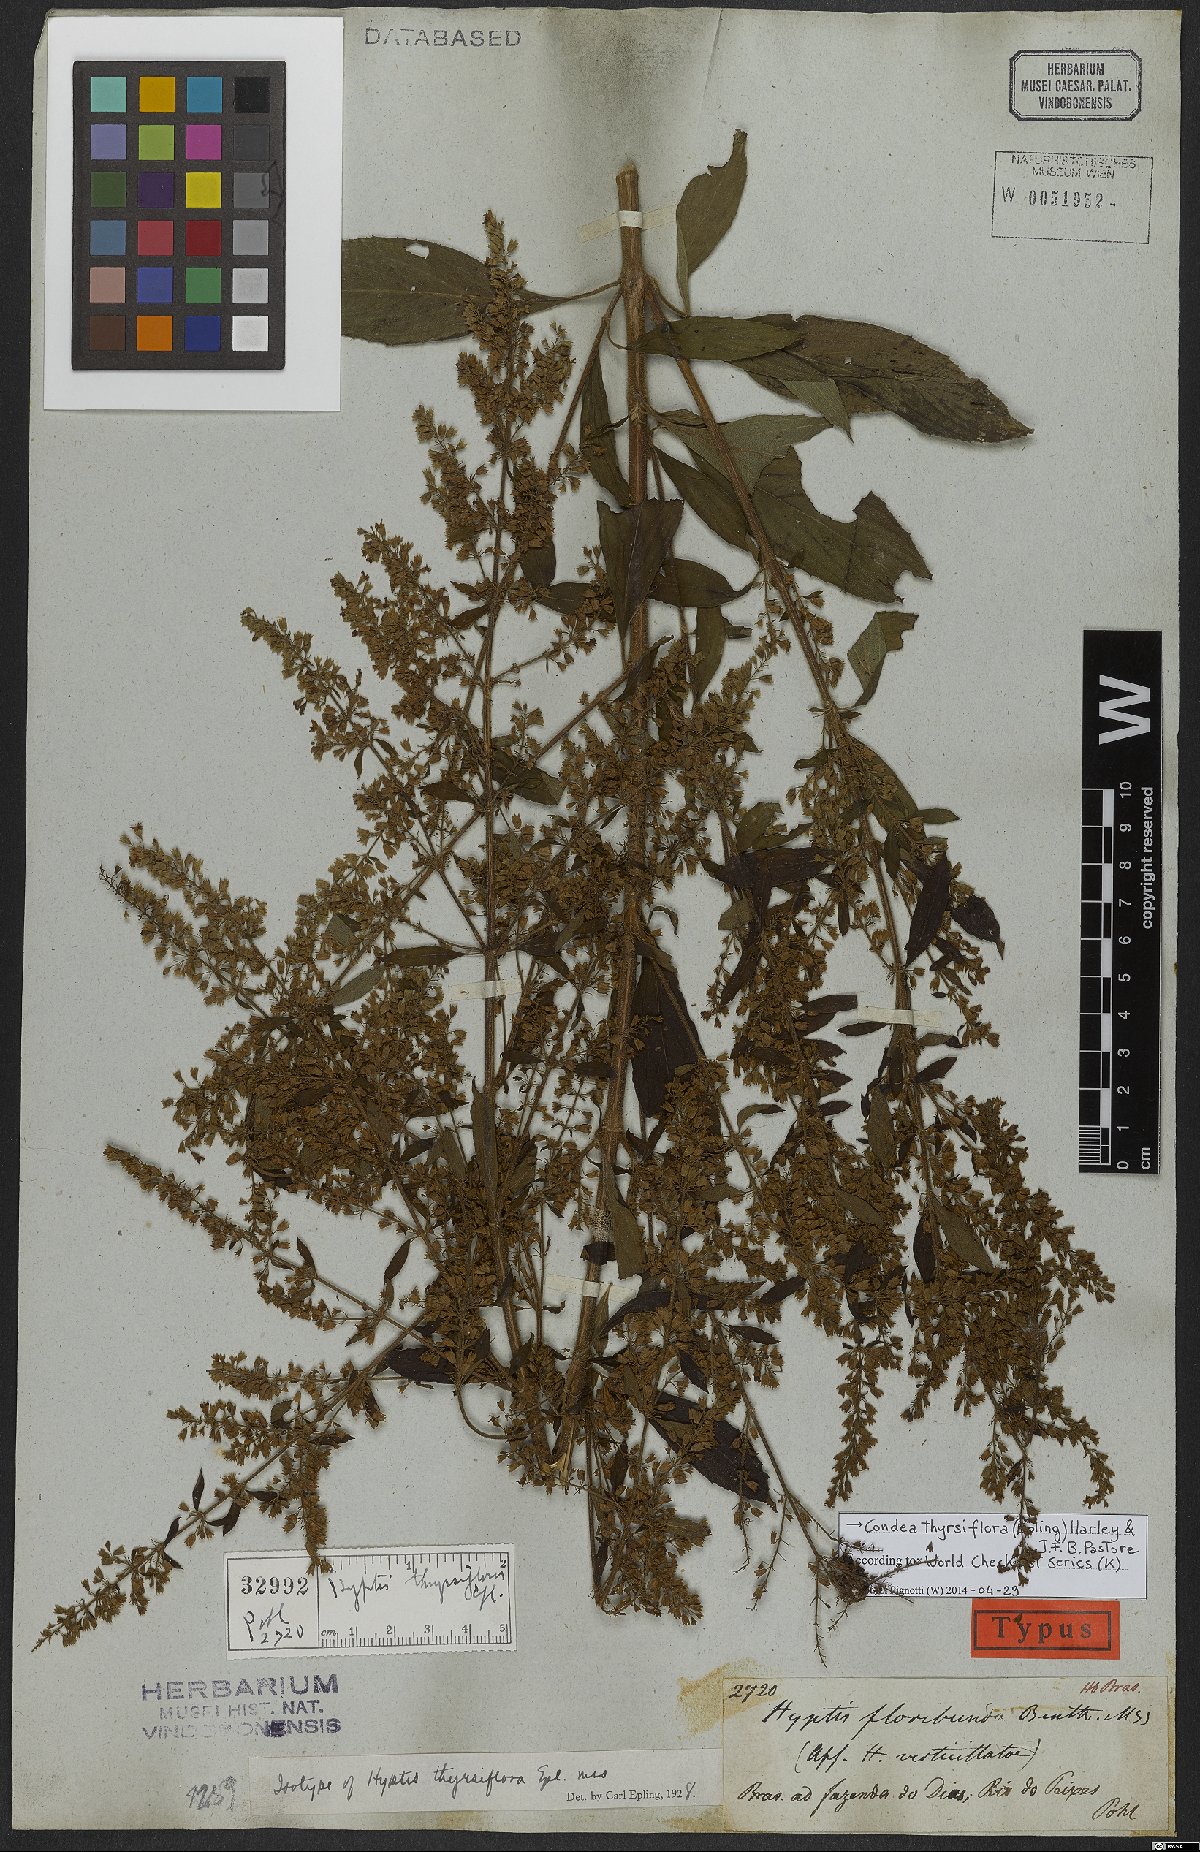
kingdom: Plantae
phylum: Tracheophyta
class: Magnoliopsida
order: Lamiales
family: Lamiaceae
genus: Condea
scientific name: Condea thyrsiflora
